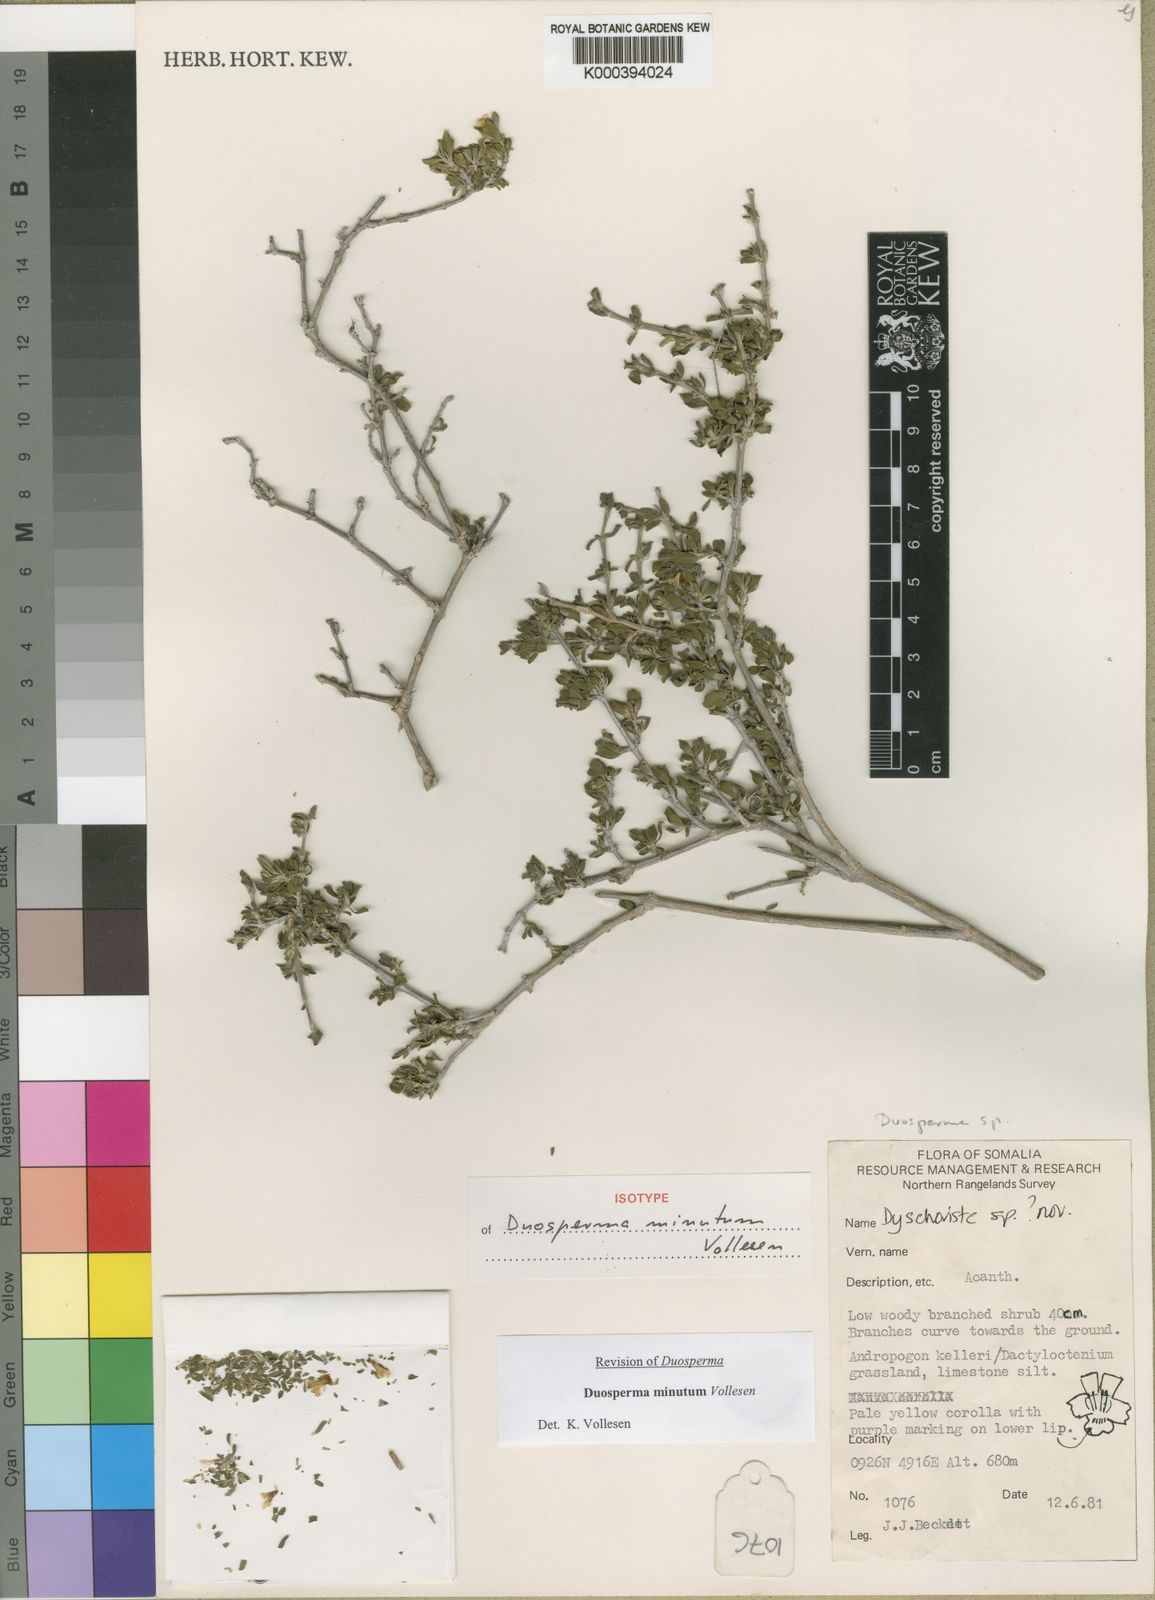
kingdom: Plantae
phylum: Tracheophyta
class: Magnoliopsida
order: Lamiales
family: Acanthaceae
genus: Duosperma
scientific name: Duosperma
